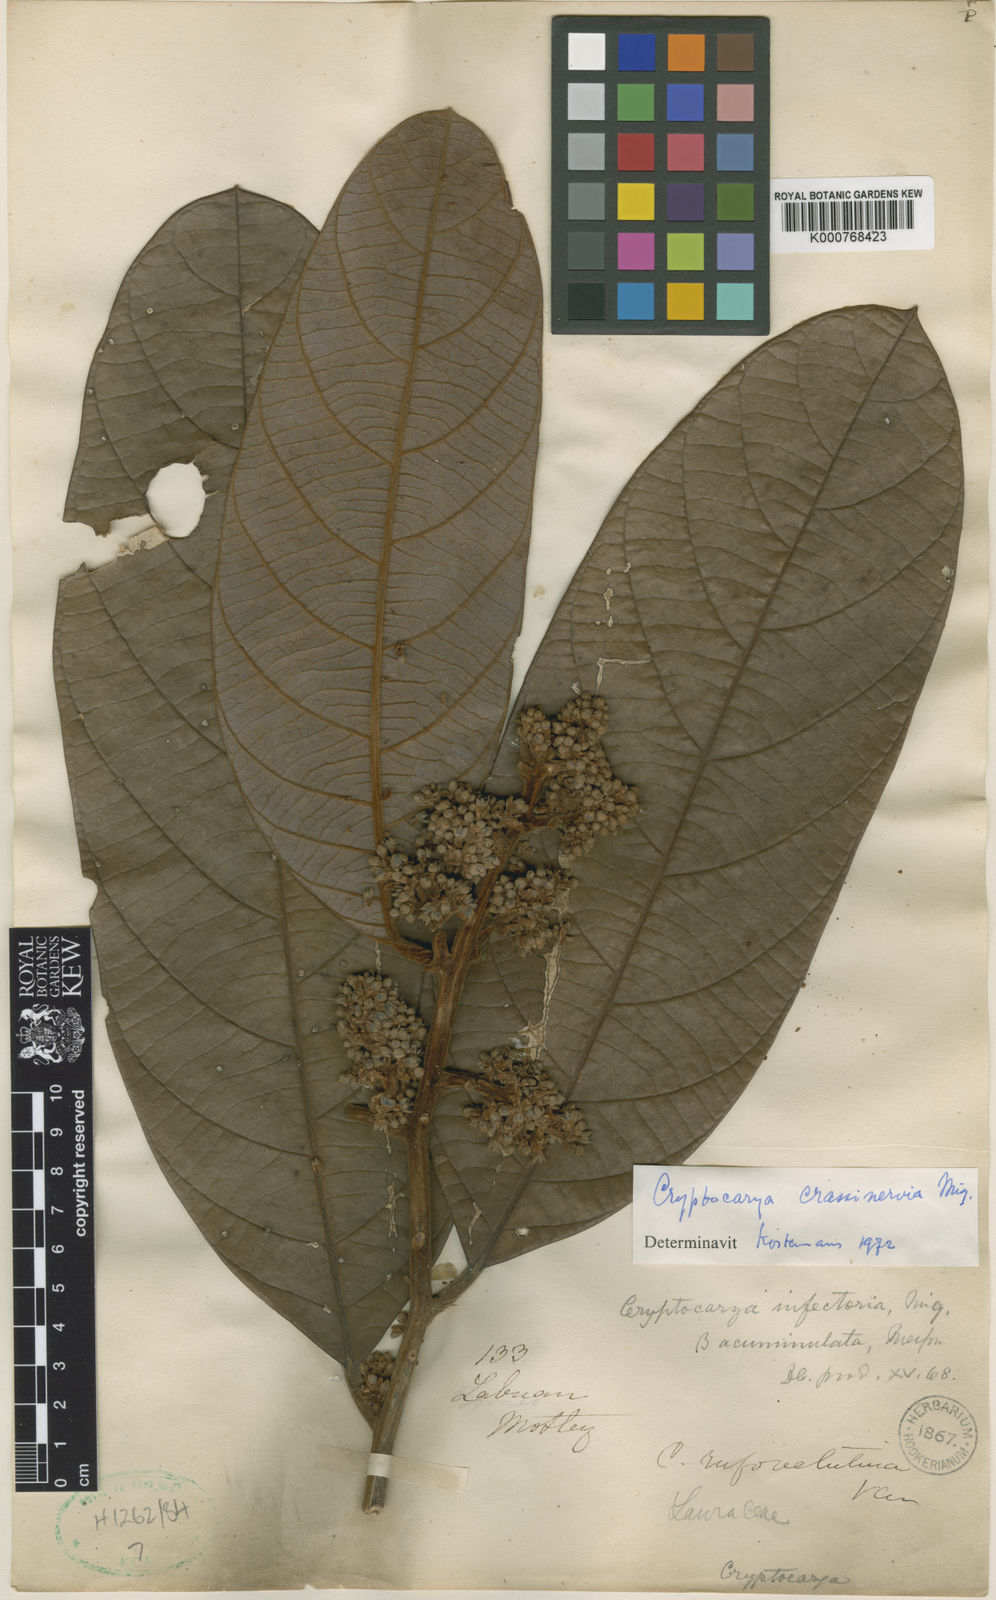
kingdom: Plantae
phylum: Tracheophyta
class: Magnoliopsida
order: Laurales
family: Lauraceae
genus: Cryptocarya
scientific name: Cryptocarya diversifolia
